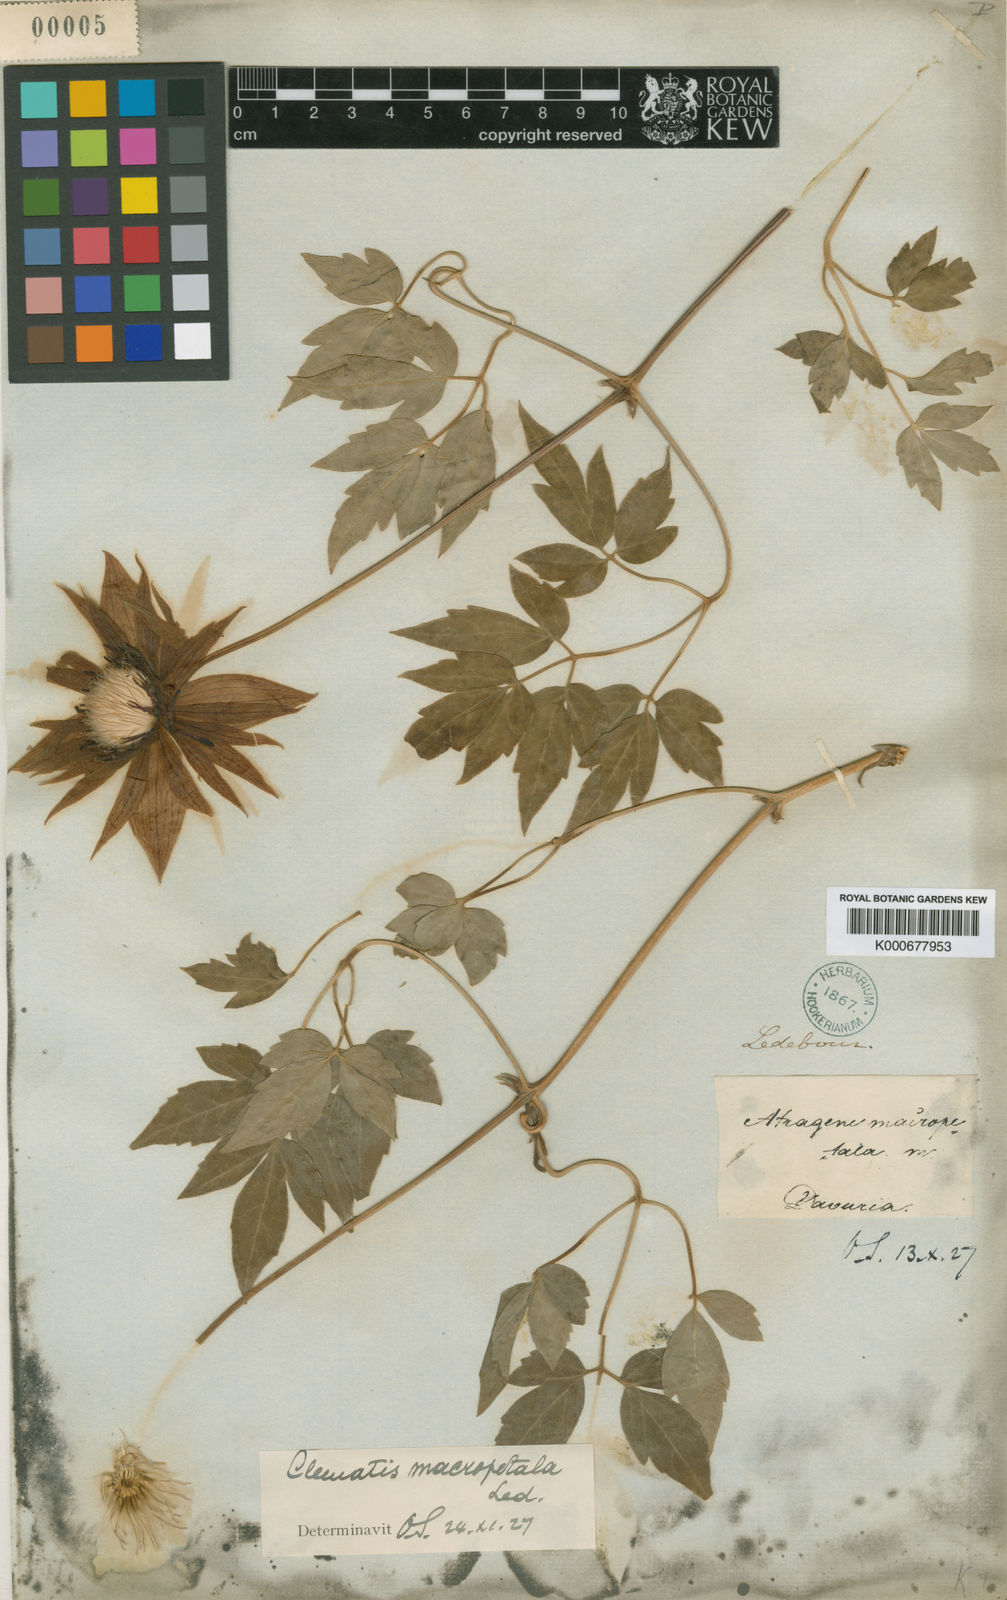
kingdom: Plantae
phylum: Tracheophyta
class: Magnoliopsida
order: Ranunculales
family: Ranunculaceae
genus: Clematis
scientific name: Clematis macropetala
